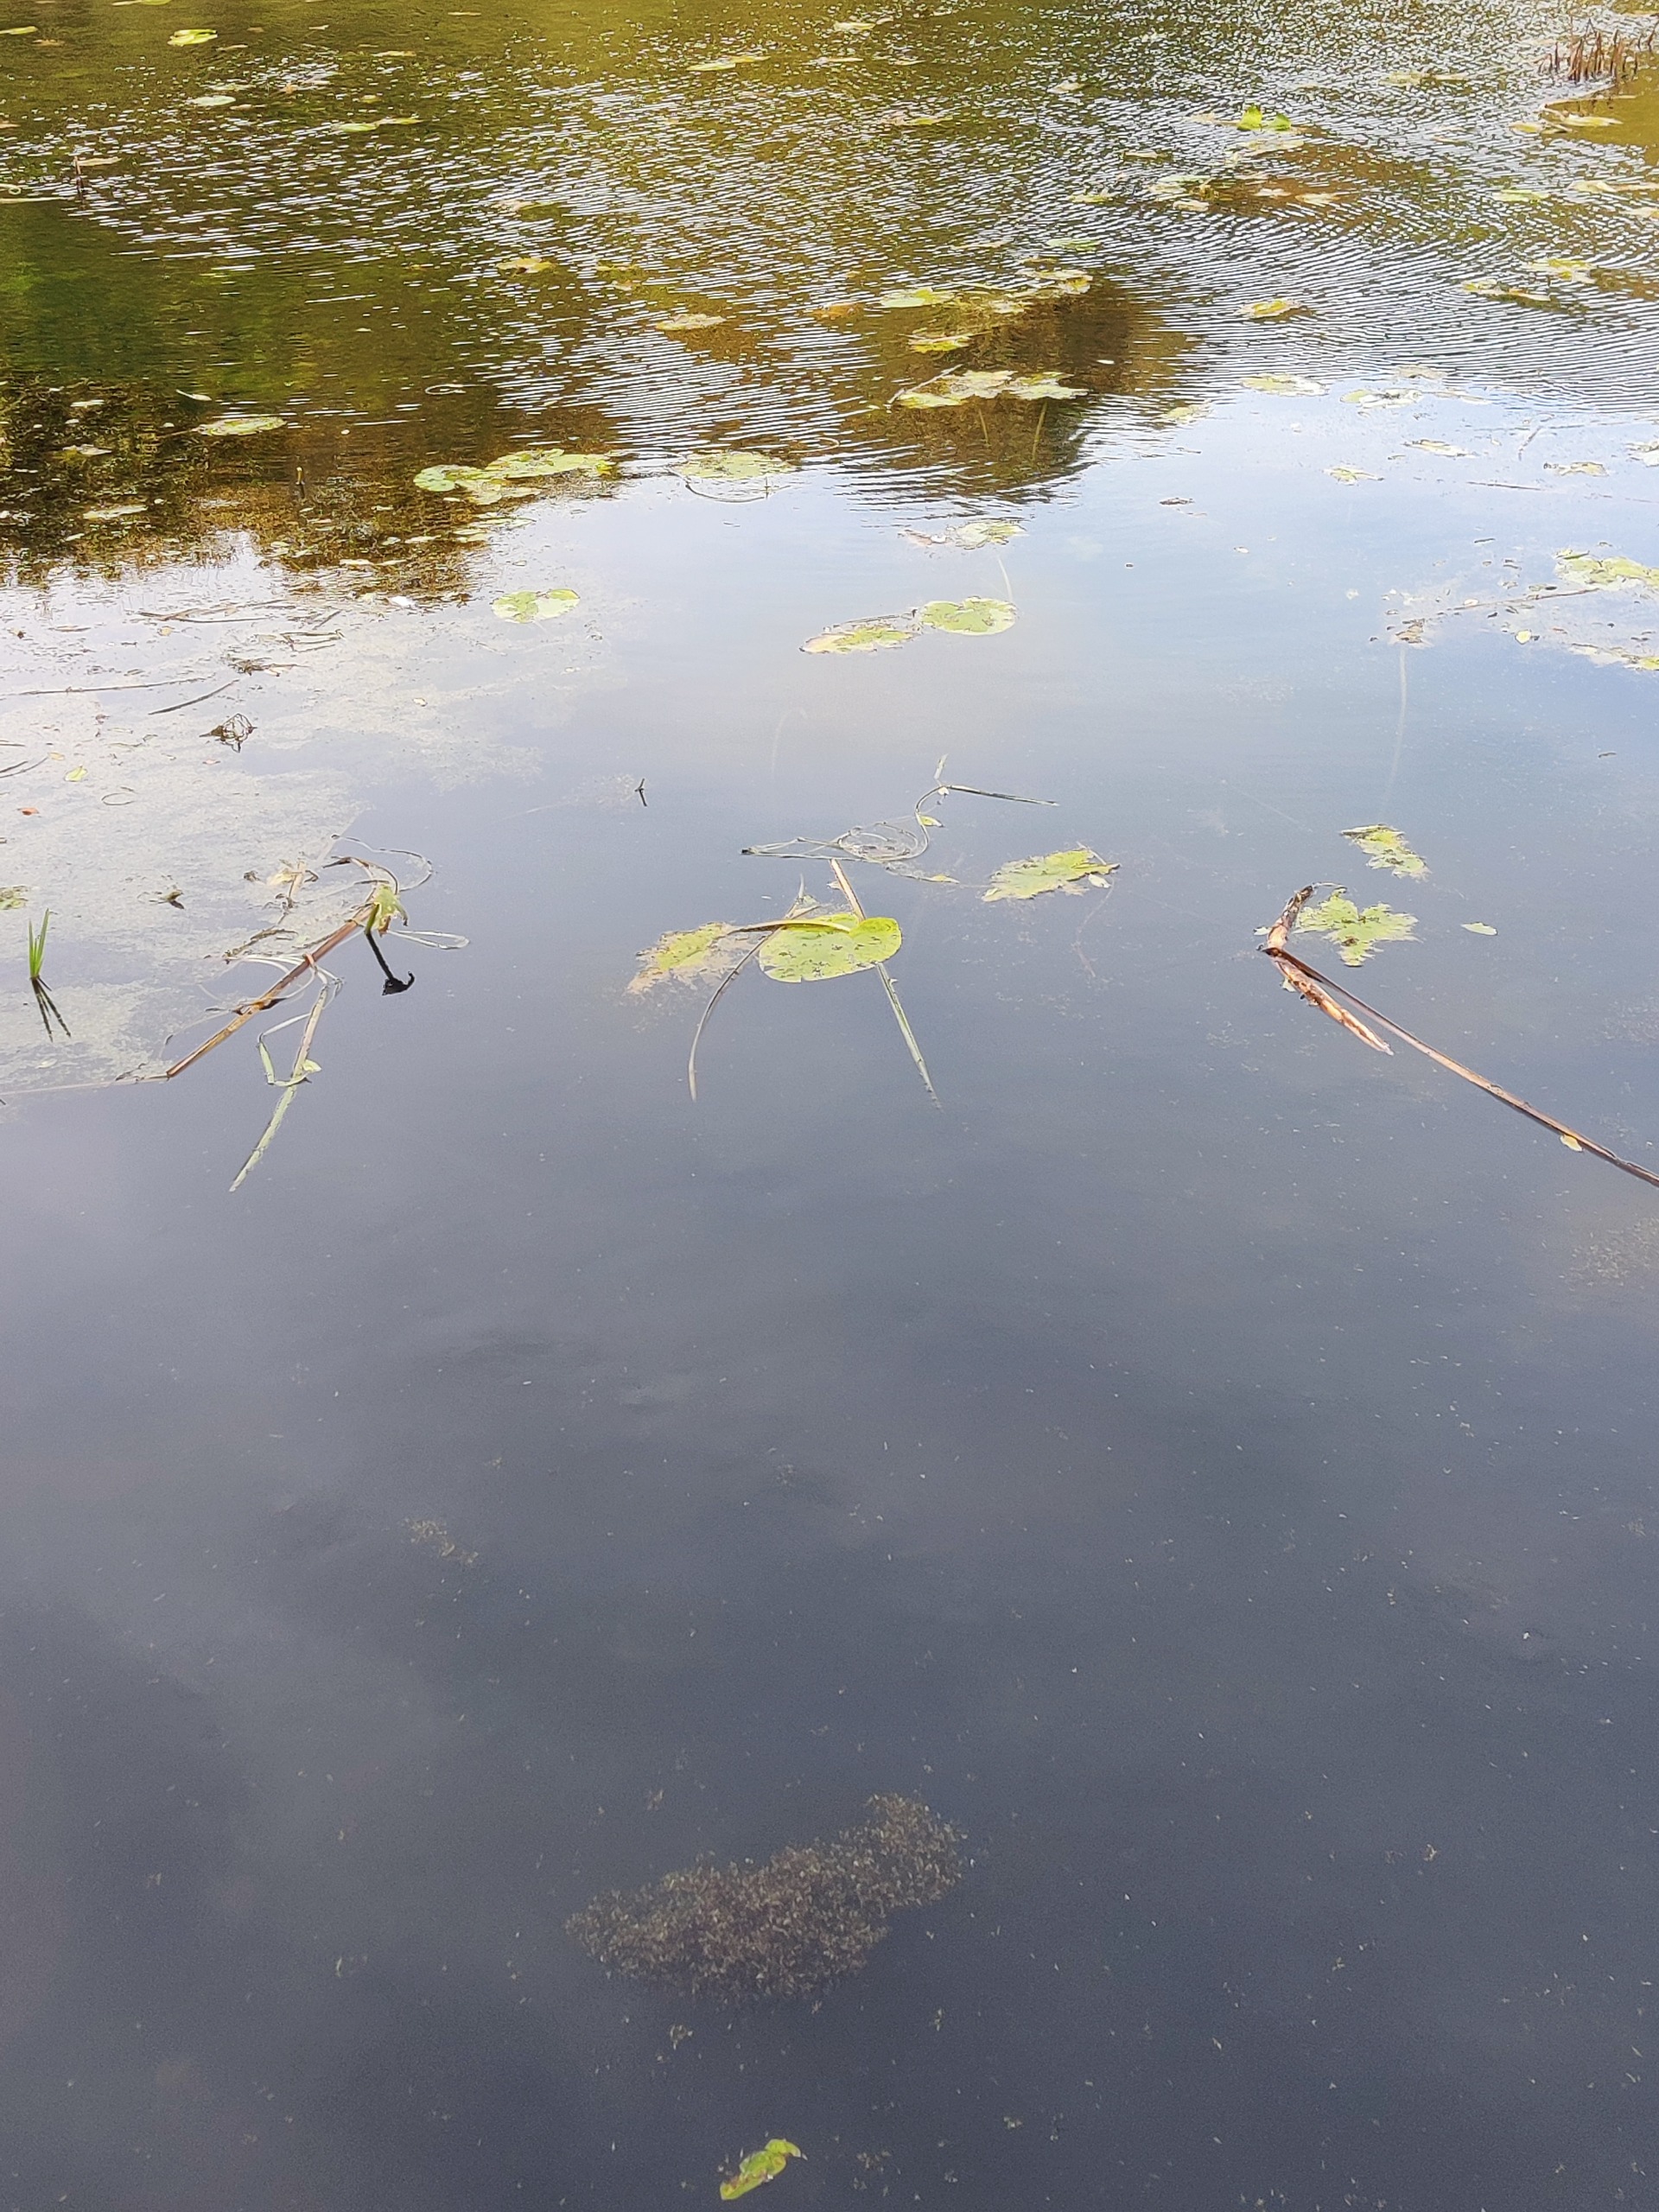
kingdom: Plantae
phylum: Tracheophyta
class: Magnoliopsida
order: Nymphaeales
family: Nymphaeaceae
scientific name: Nymphaeaceae
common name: Åkandefamilien
